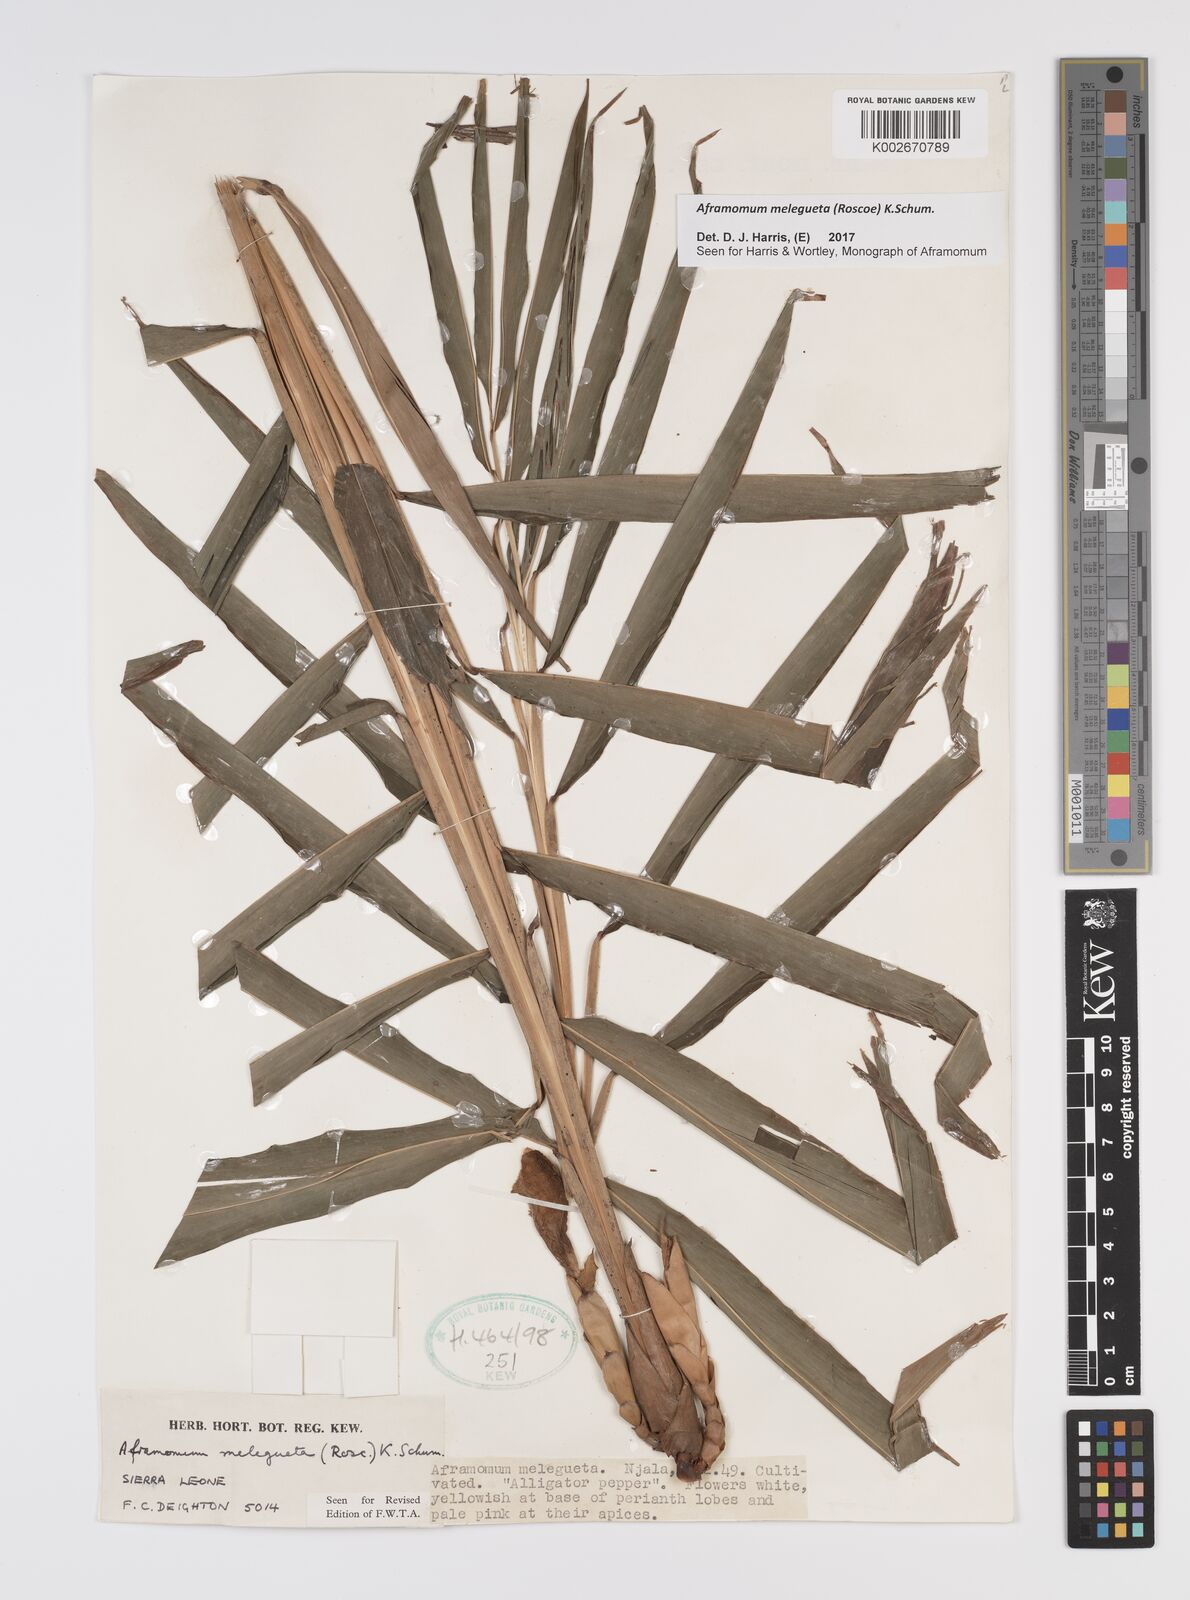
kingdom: Plantae
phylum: Tracheophyta
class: Liliopsida
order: Zingiberales
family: Zingiberaceae
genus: Aframomum
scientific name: Aframomum melegueta
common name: Grains of paradise
